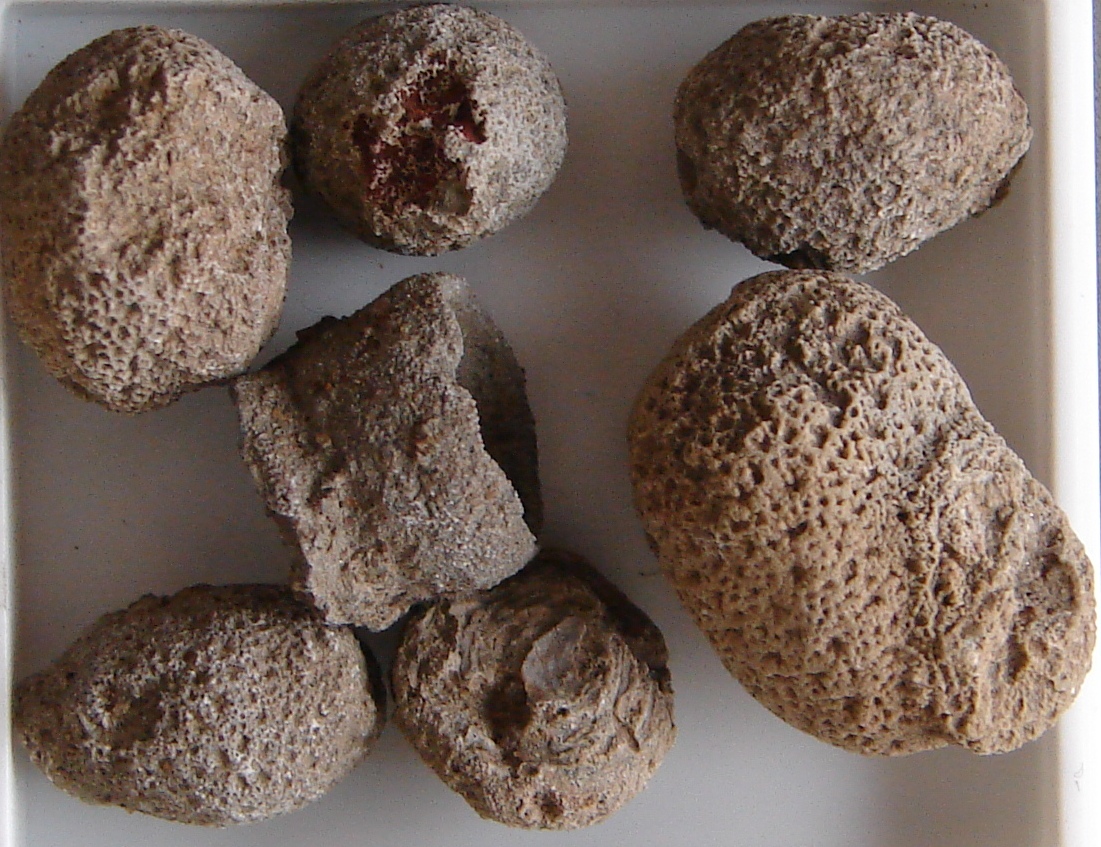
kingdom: Animalia
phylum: Porifera
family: Virgulidae
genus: Myrmecidium
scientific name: Myrmecidium
